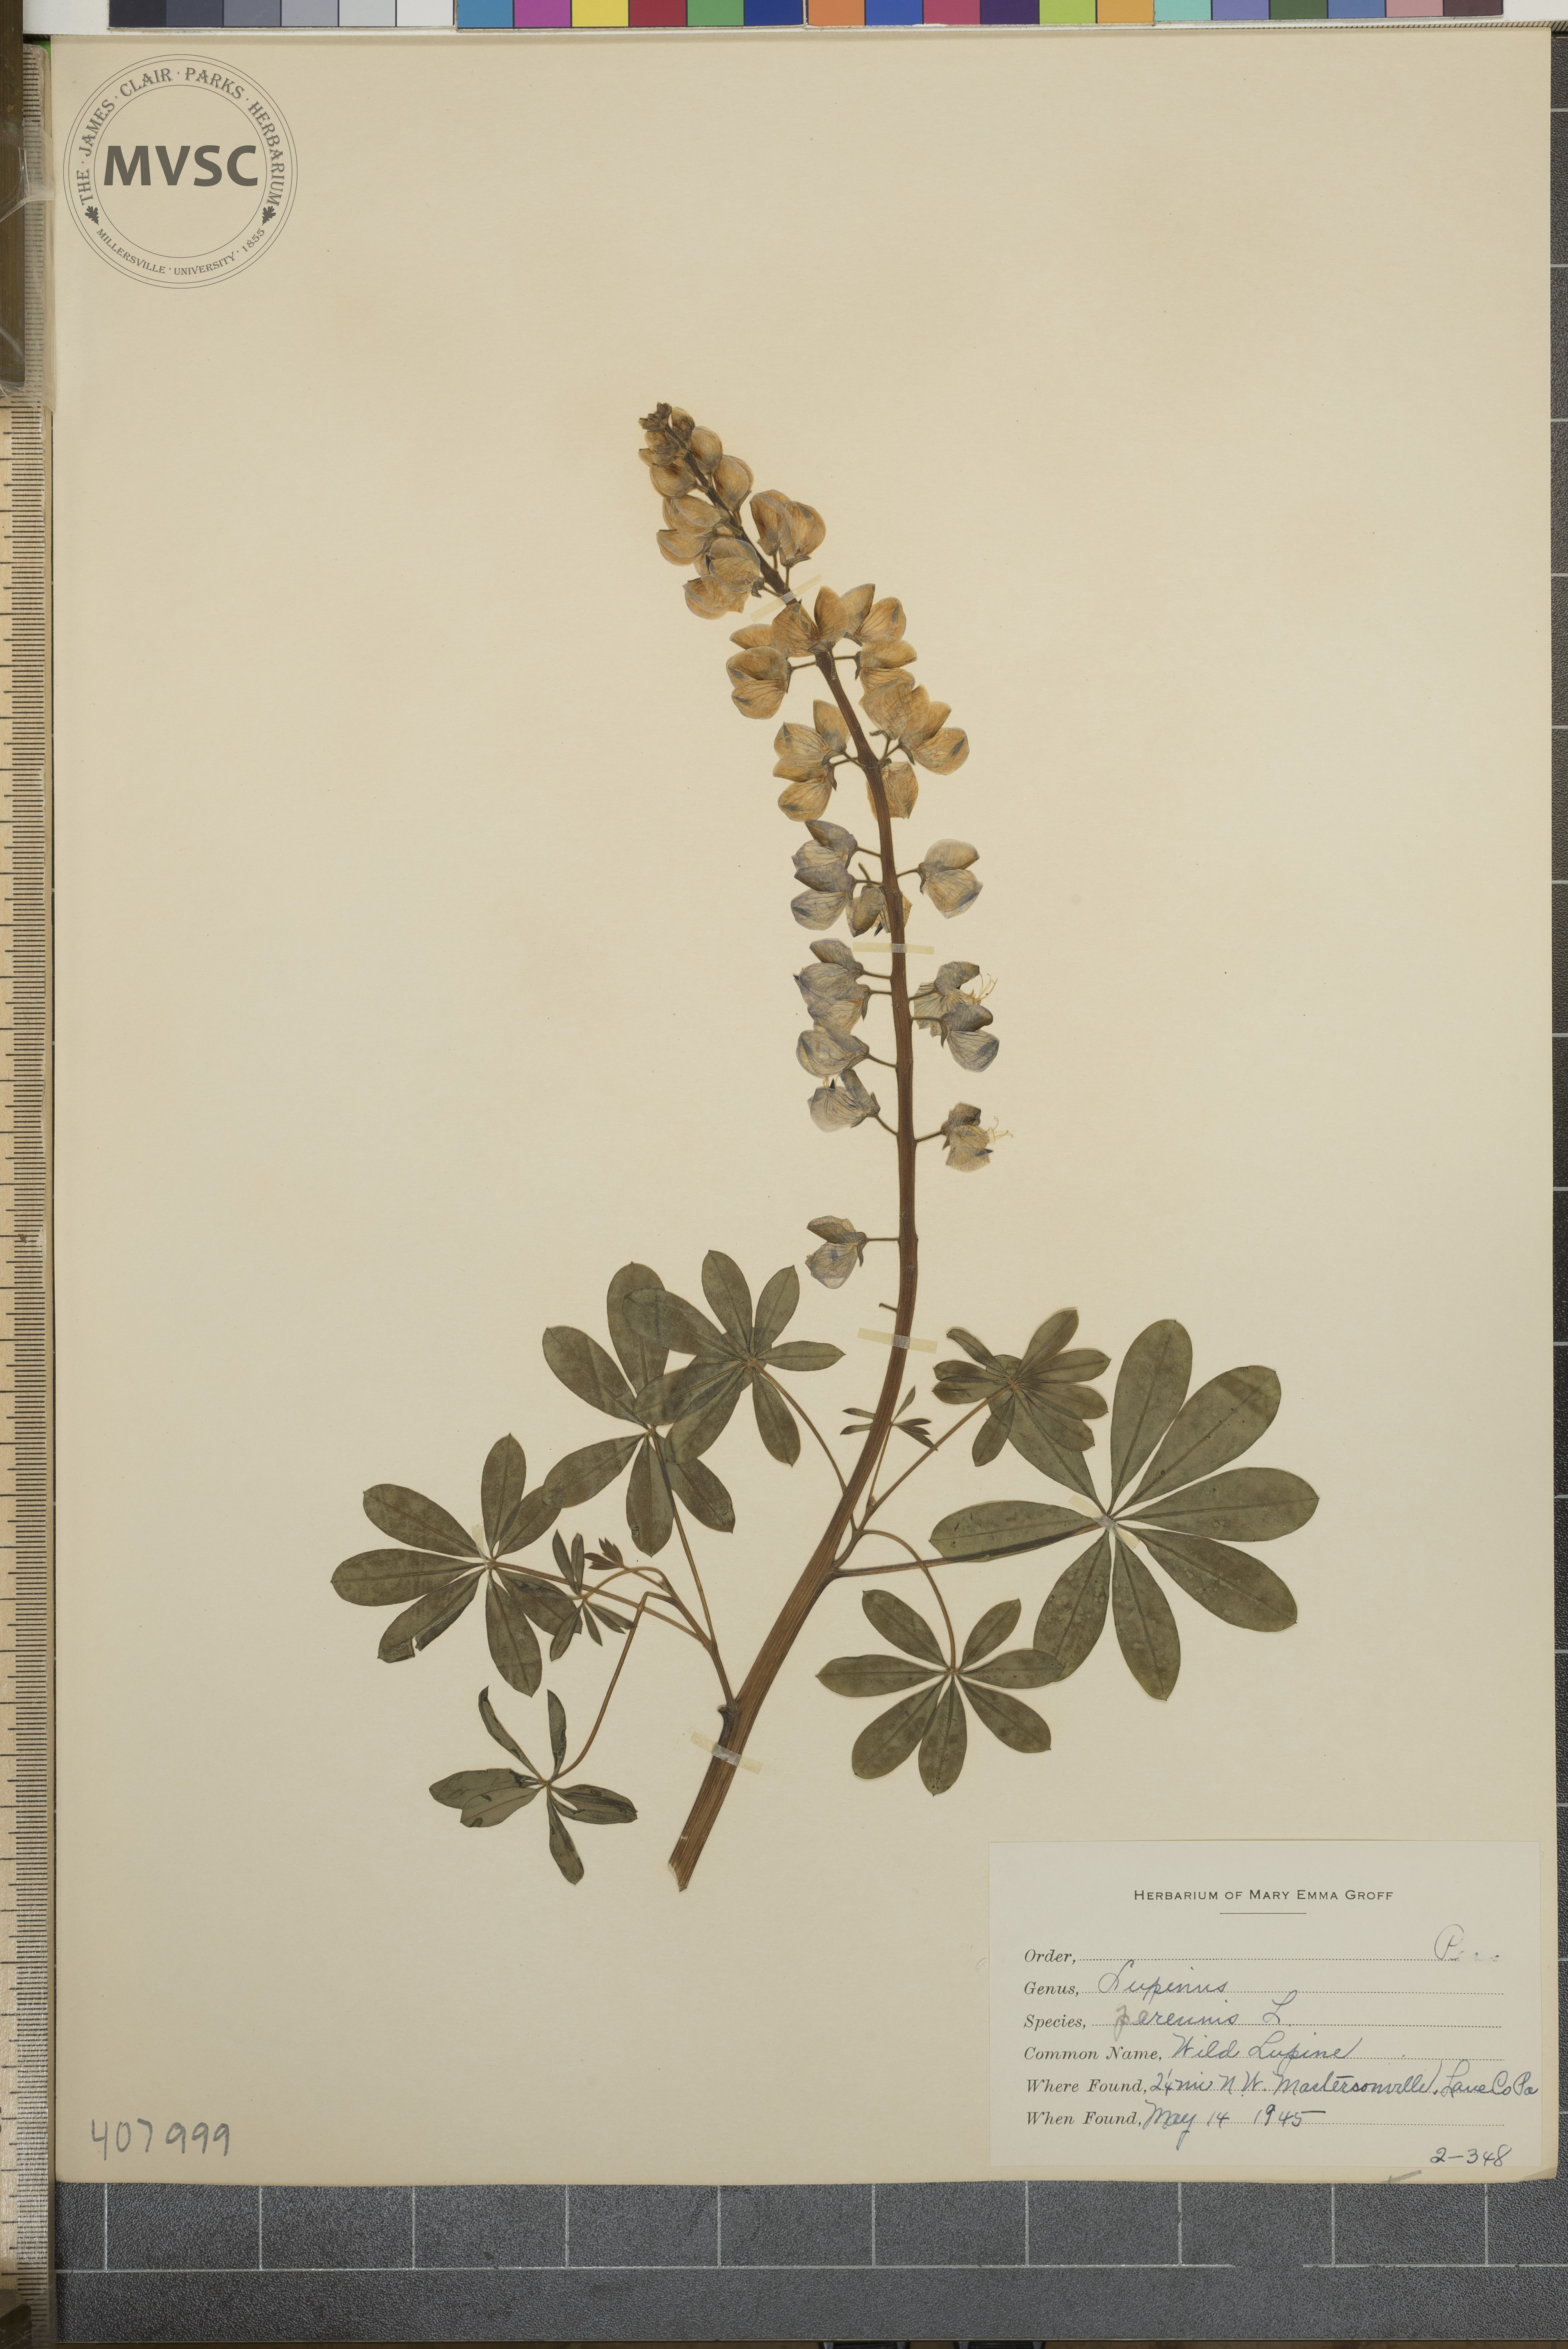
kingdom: Plantae
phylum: Tracheophyta
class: Magnoliopsida
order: Fabales
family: Fabaceae
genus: Lupinus
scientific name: Lupinus perennis
